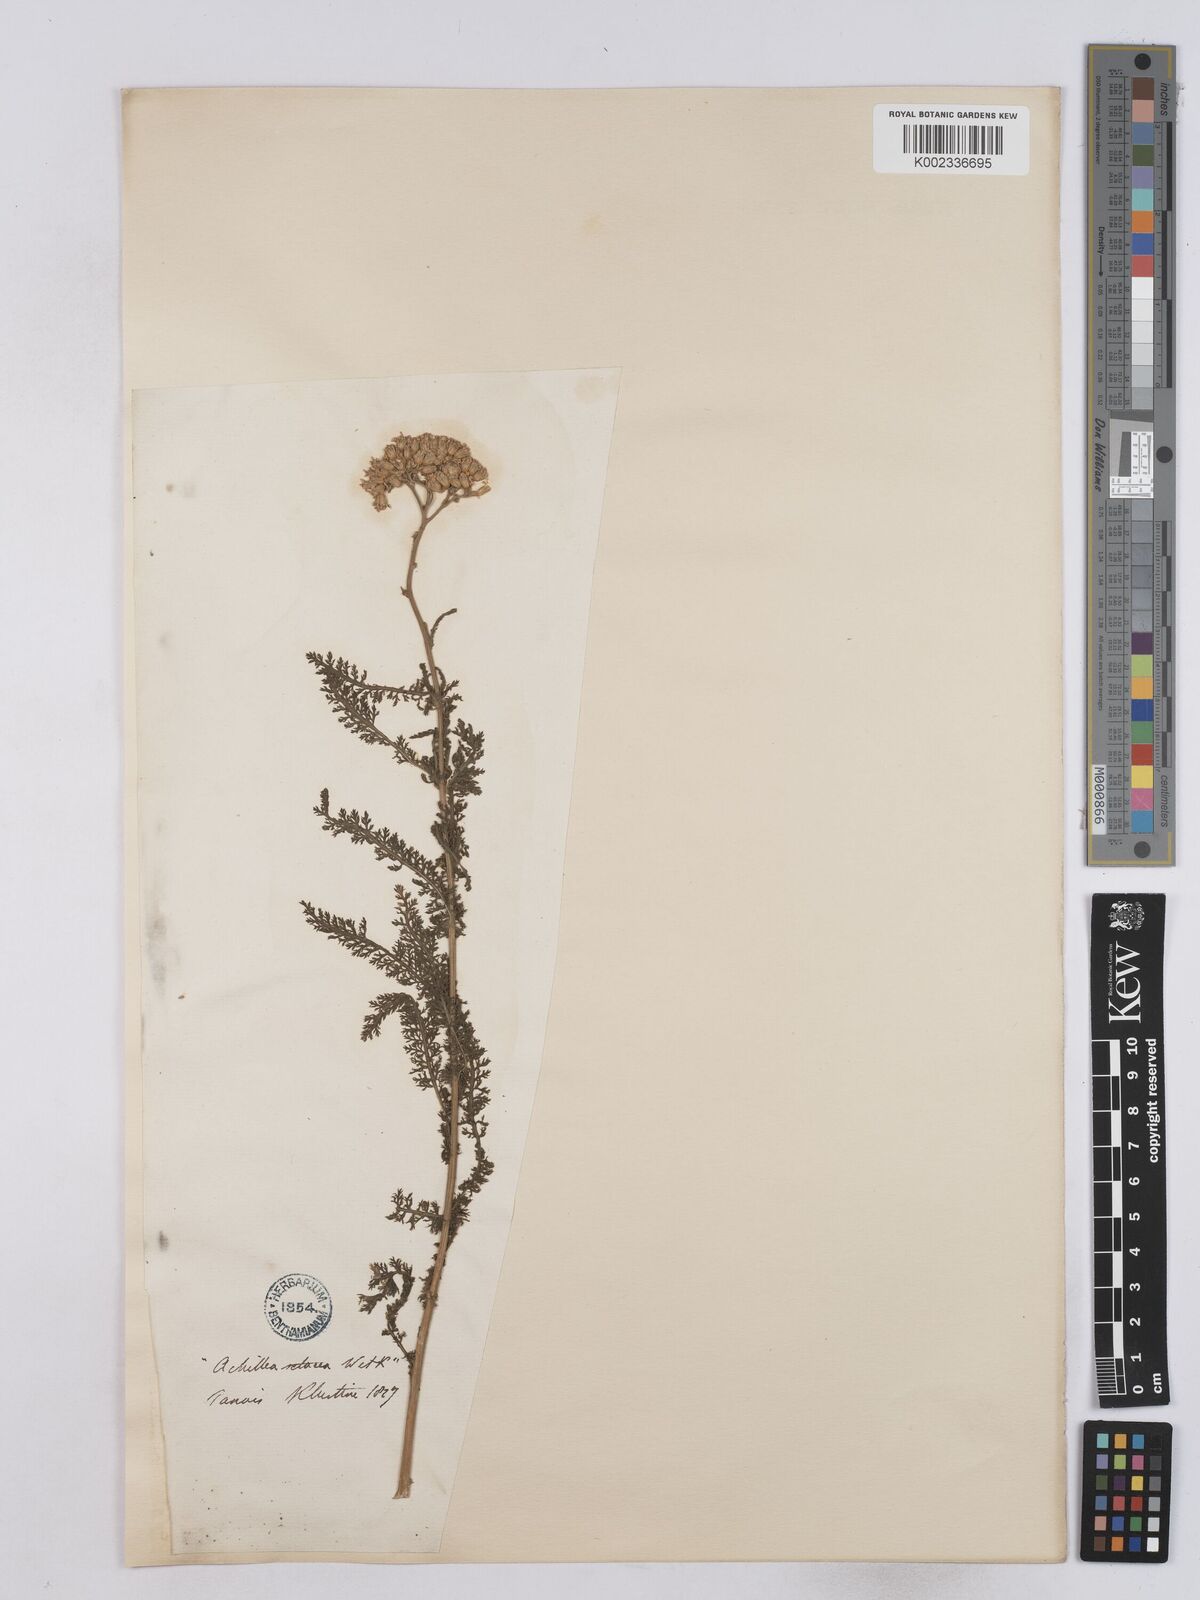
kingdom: Plantae
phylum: Tracheophyta
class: Magnoliopsida
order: Asterales
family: Asteraceae
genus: Achillea
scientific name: Achillea setacea
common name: Bristly yarrow
